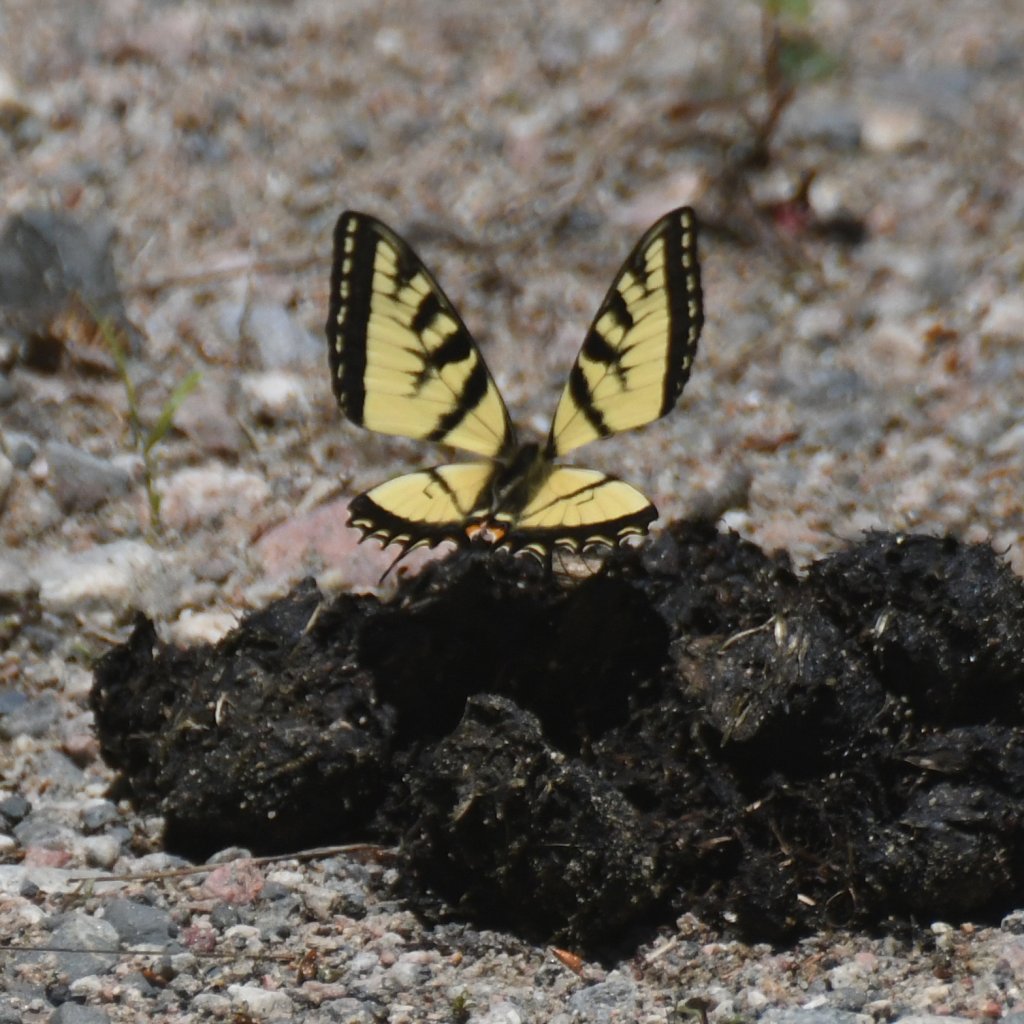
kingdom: Animalia
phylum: Arthropoda
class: Insecta
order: Lepidoptera
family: Papilionidae
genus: Pterourus
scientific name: Pterourus canadensis
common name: Canadian Tiger Swallowtail
